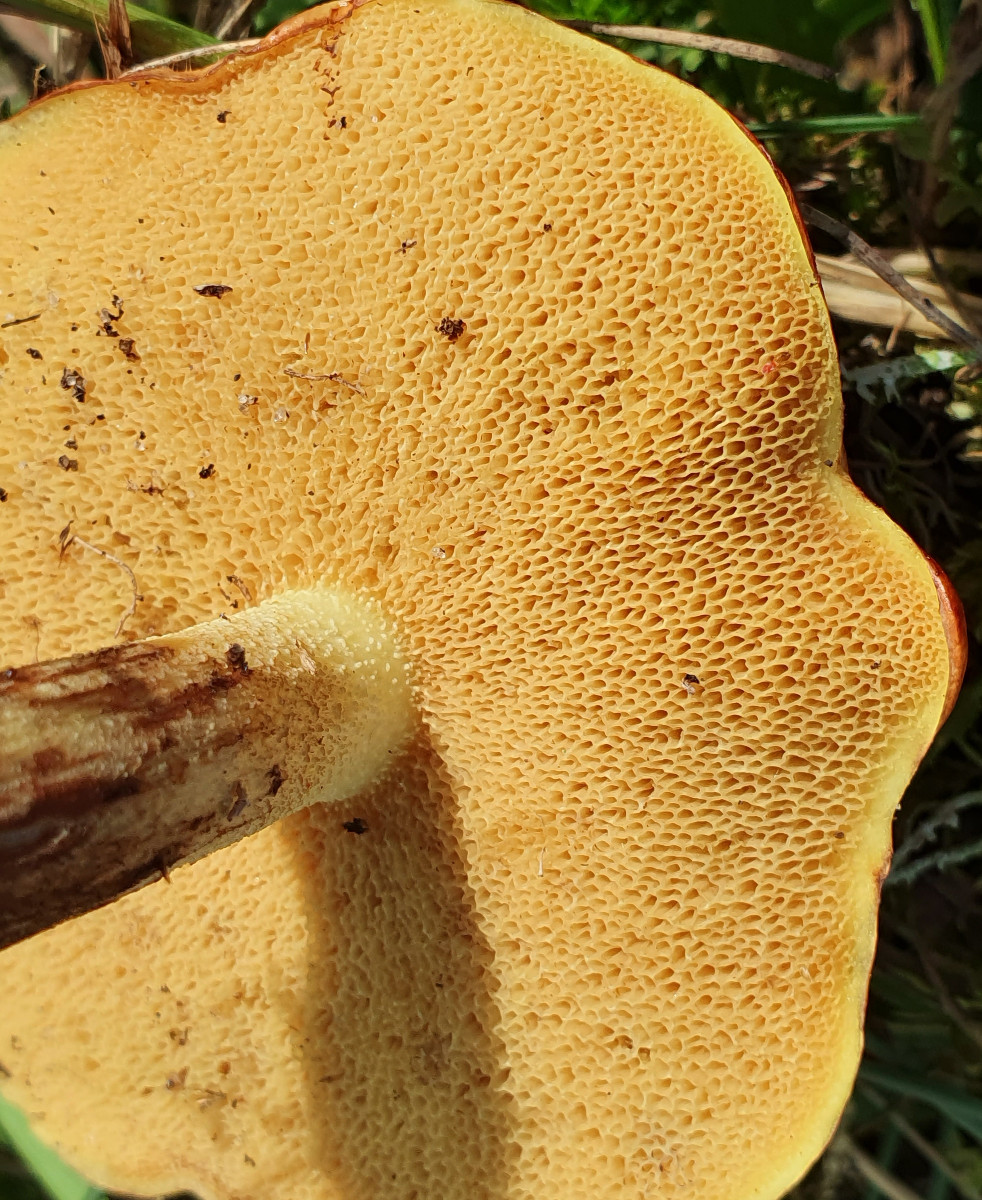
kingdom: Fungi
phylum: Basidiomycota
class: Agaricomycetes
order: Boletales
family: Suillaceae
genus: Suillus
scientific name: Suillus granulatus
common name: kornet slimrørhat
